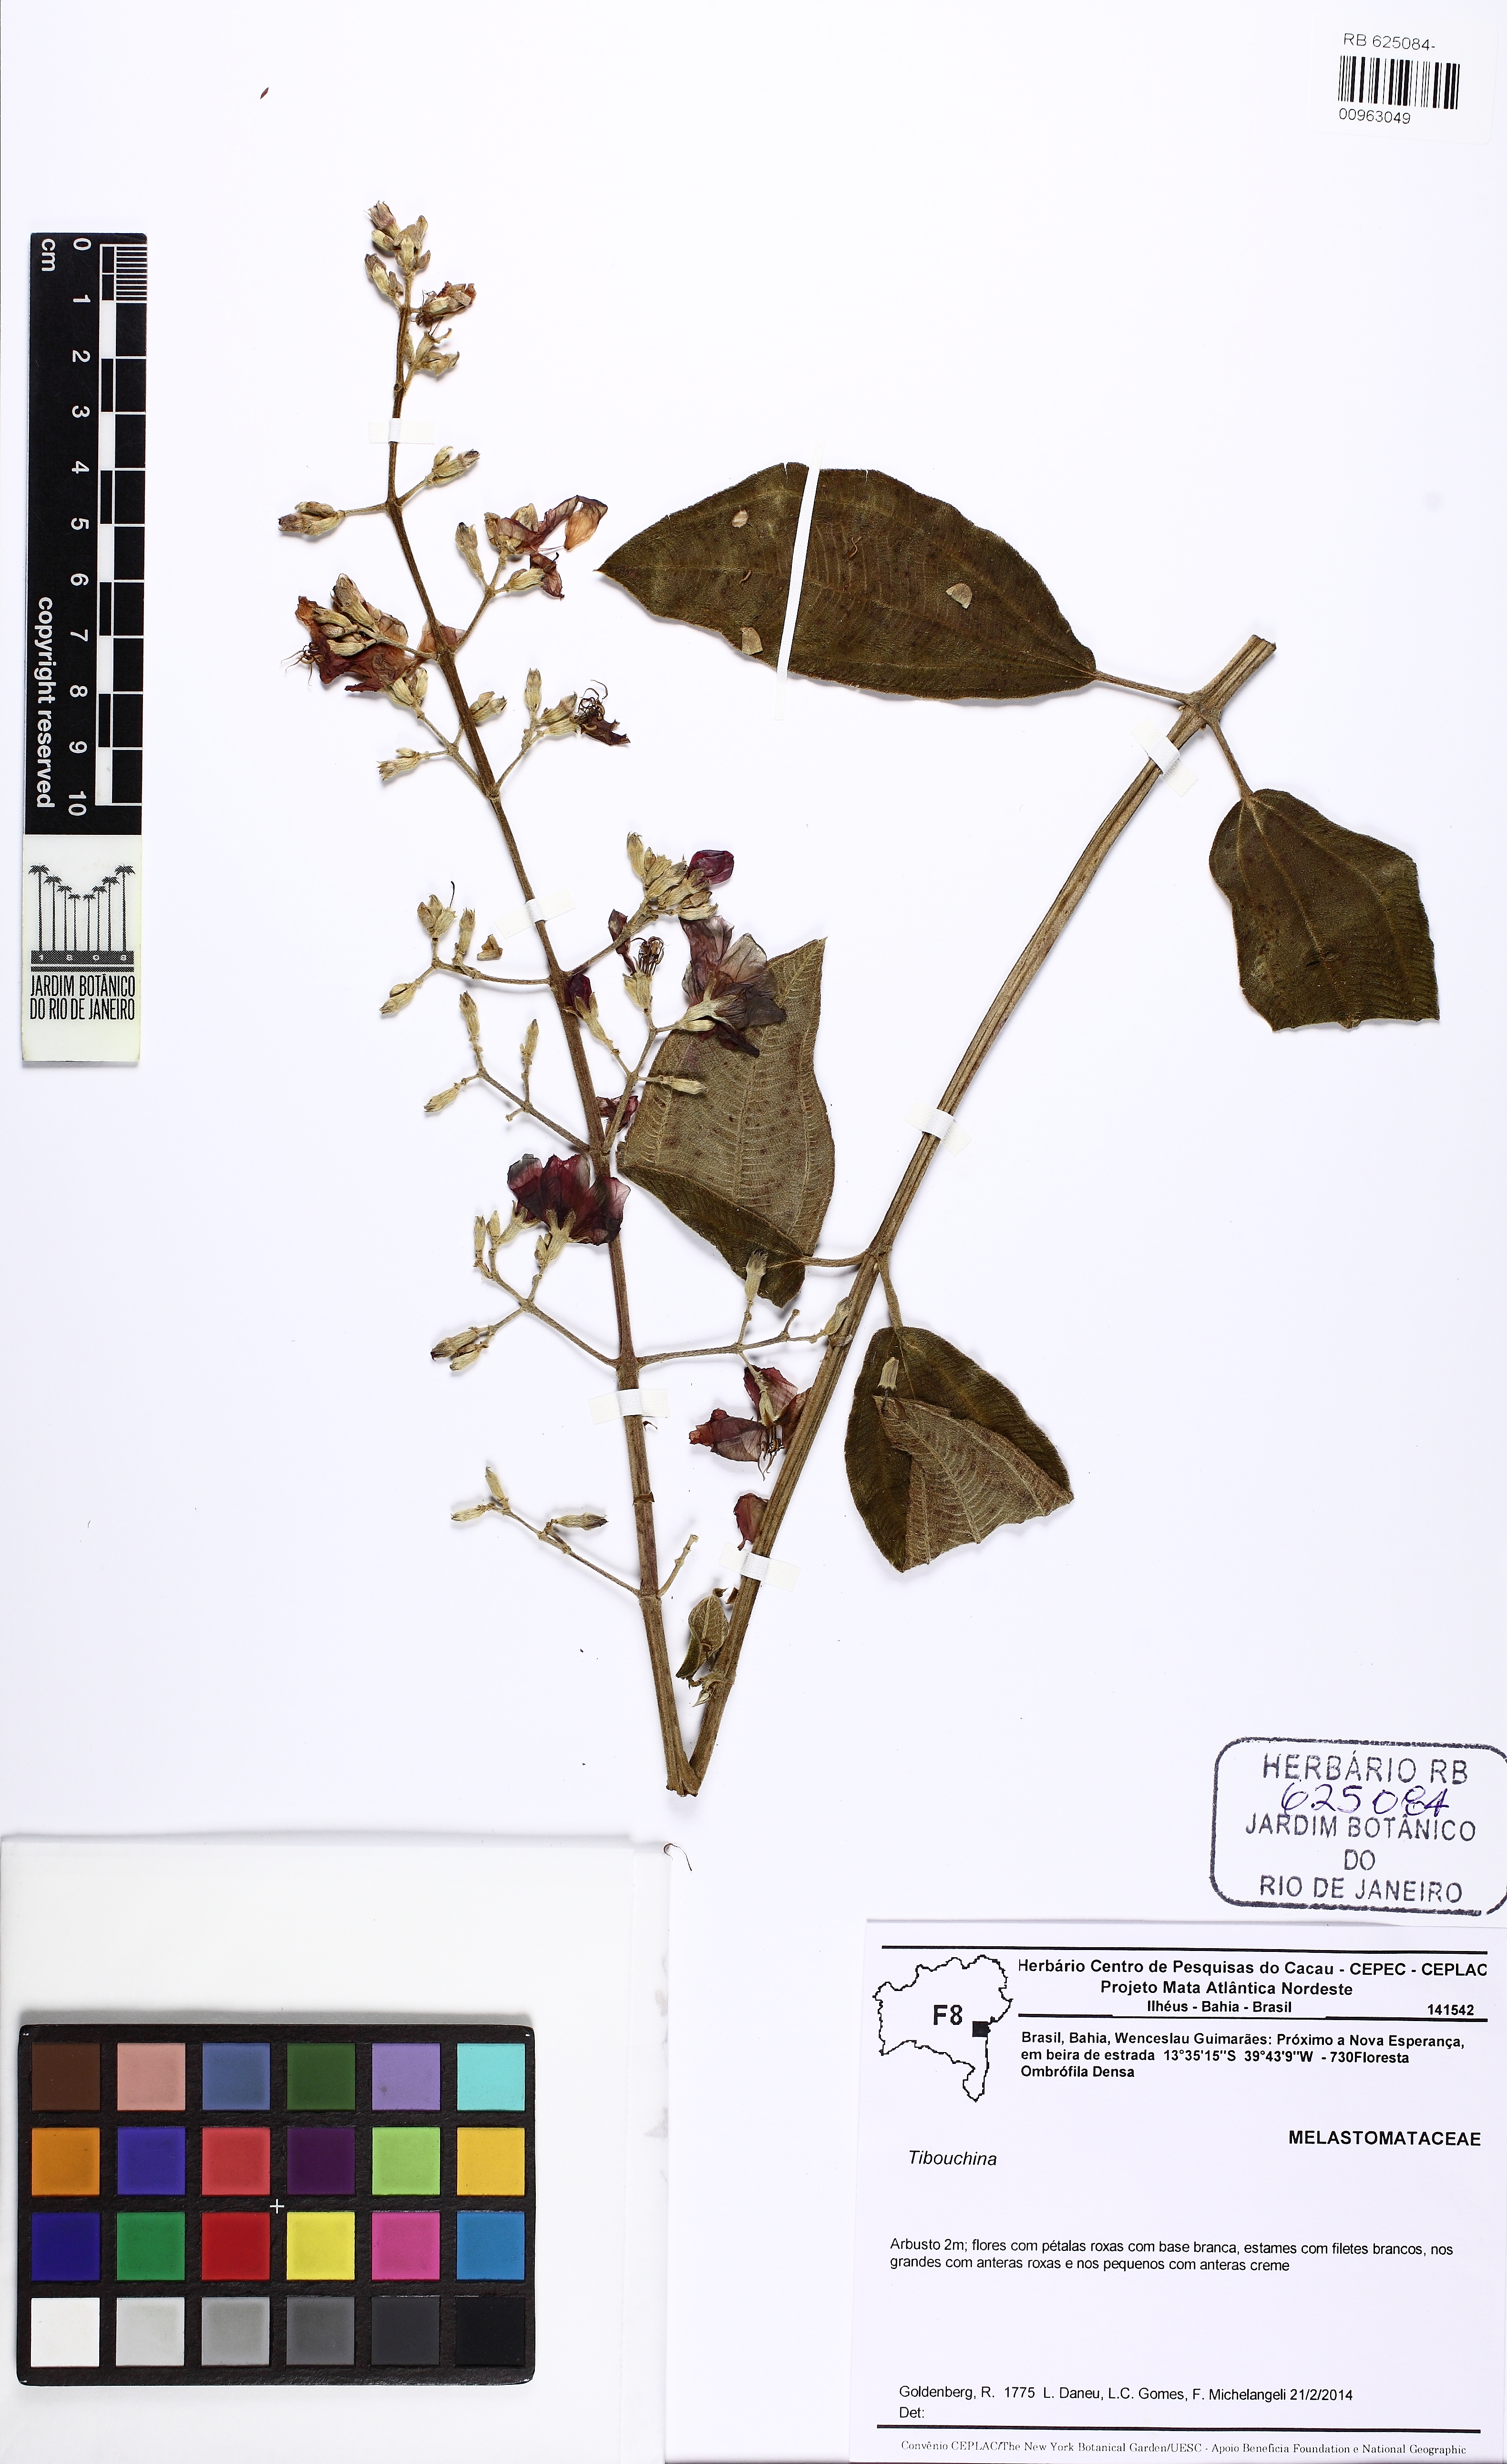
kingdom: Plantae
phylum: Tracheophyta
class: Magnoliopsida
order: Myrtales
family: Melastomataceae
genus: Tibouchina
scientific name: Tibouchina
